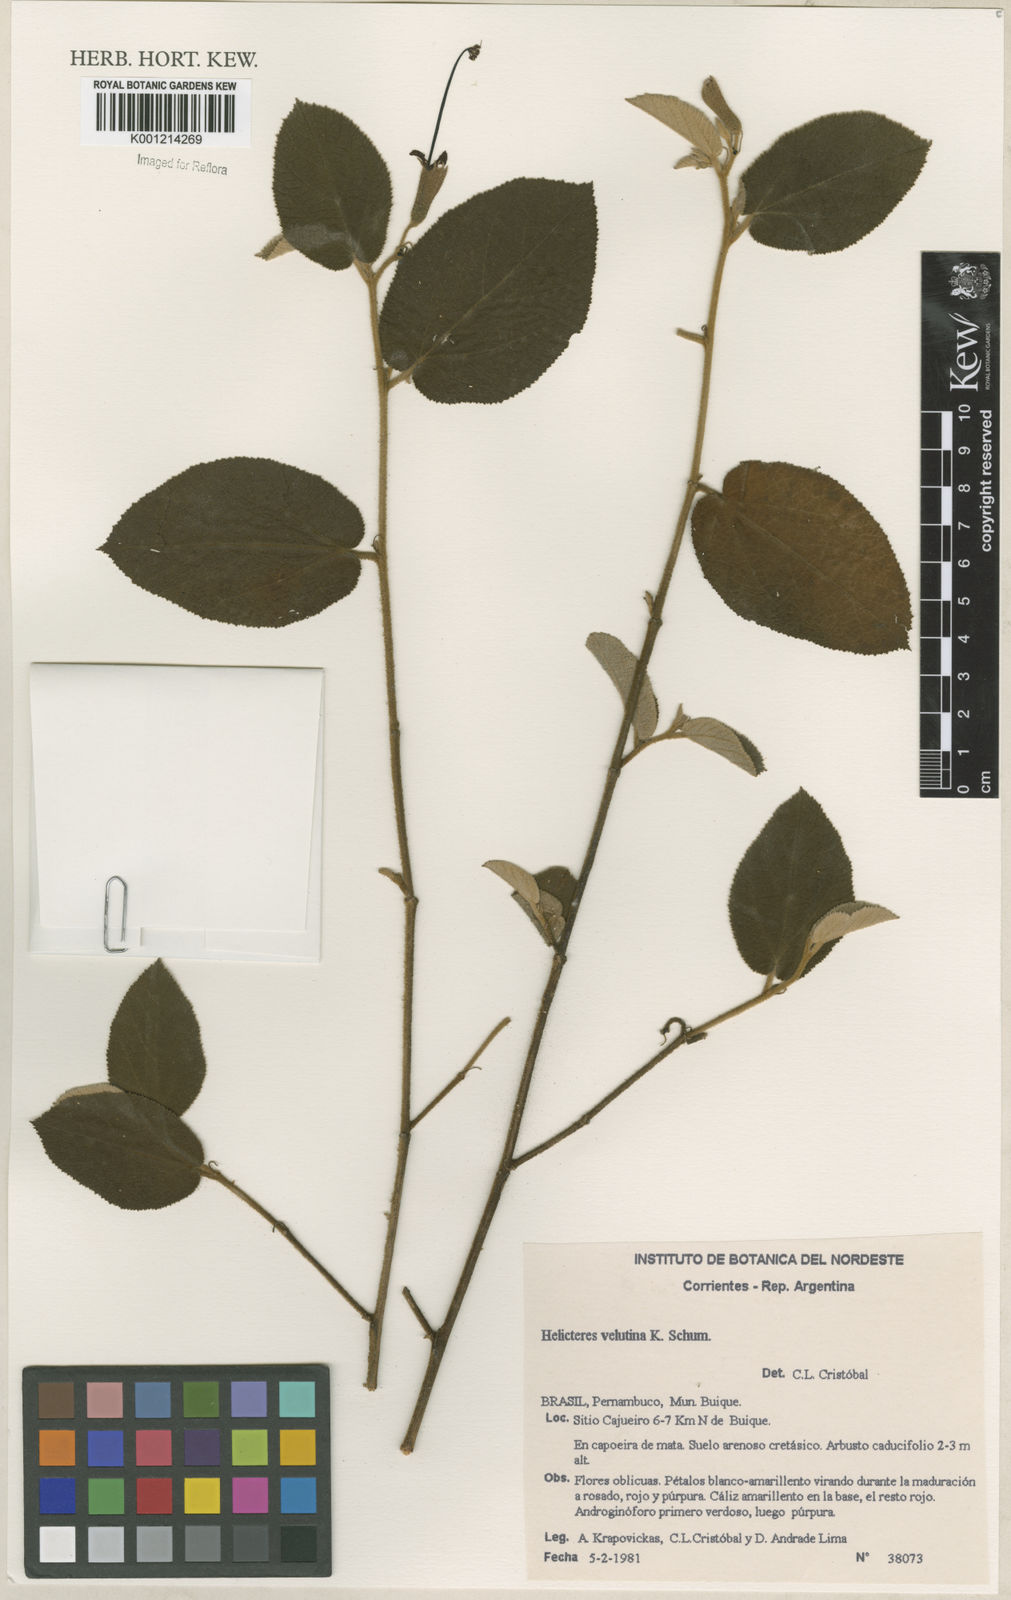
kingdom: Plantae
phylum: Tracheophyta
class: Magnoliopsida
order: Malvales
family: Malvaceae
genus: Helicteres
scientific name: Helicteres velutina
